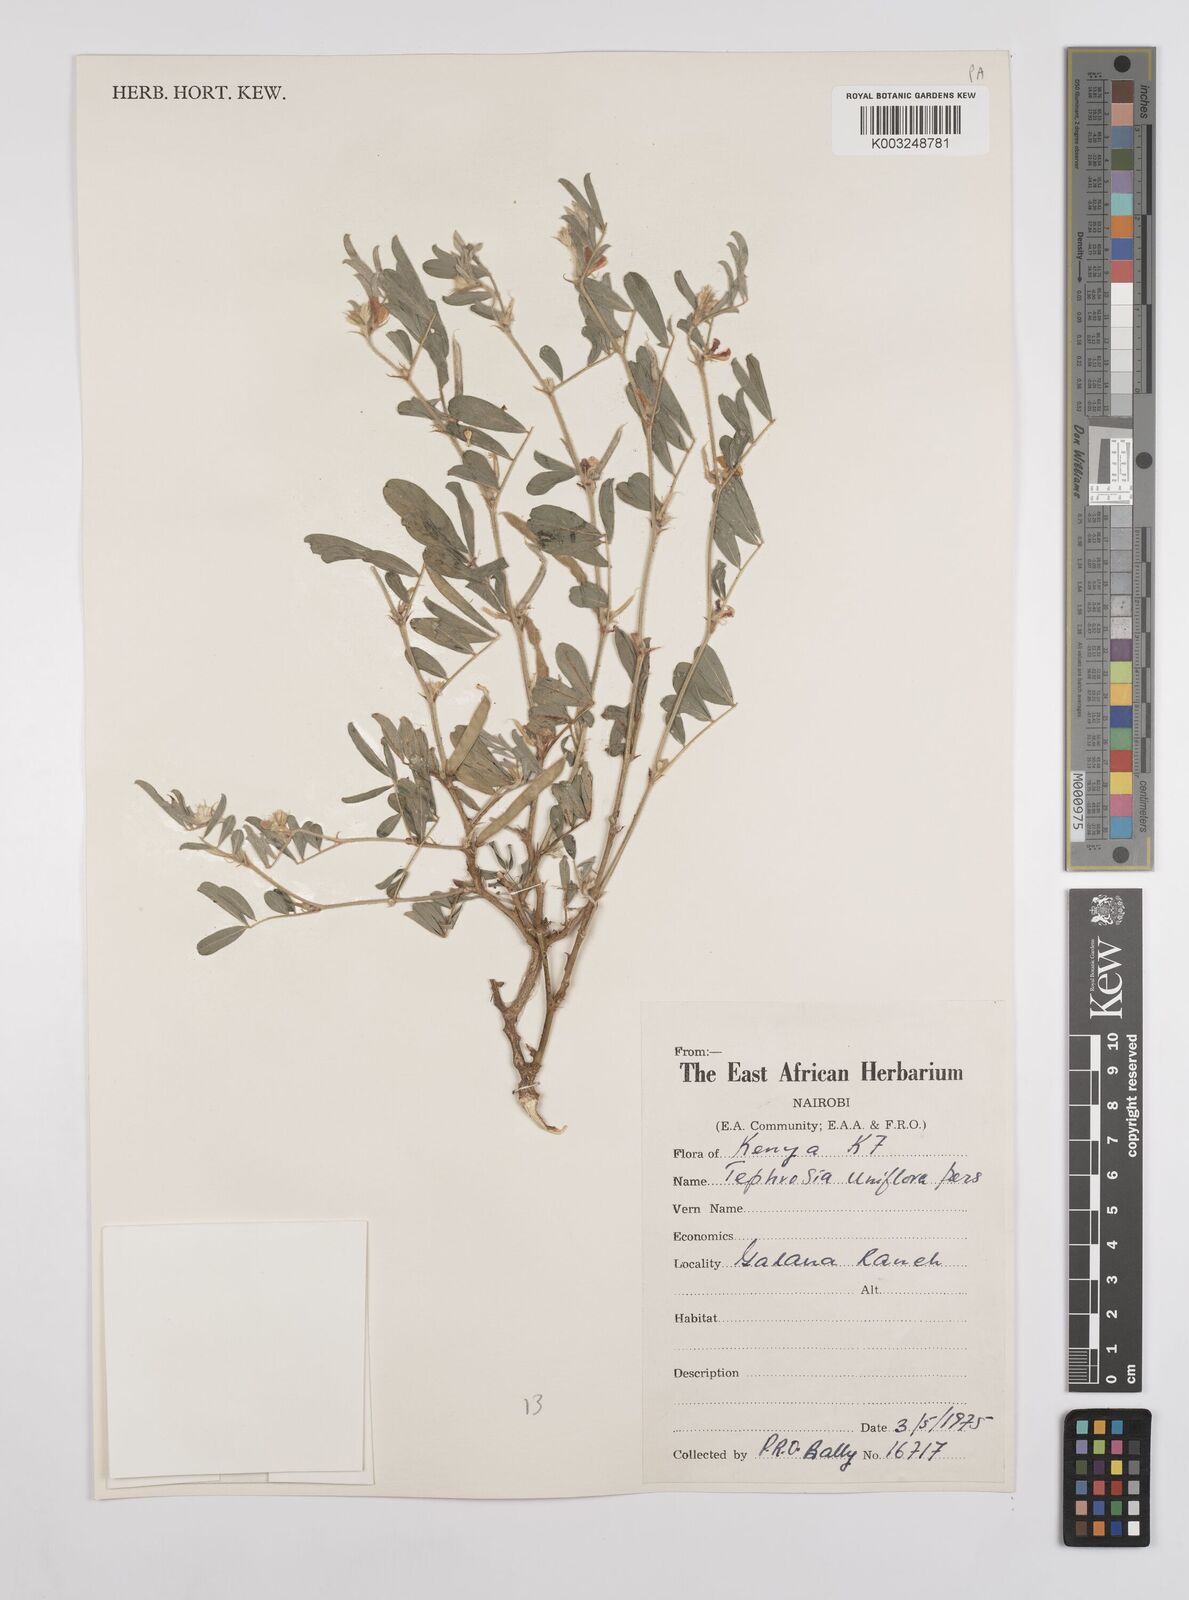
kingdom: Plantae
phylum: Tracheophyta
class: Magnoliopsida
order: Fabales
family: Fabaceae
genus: Tephrosia
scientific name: Tephrosia uniflora
